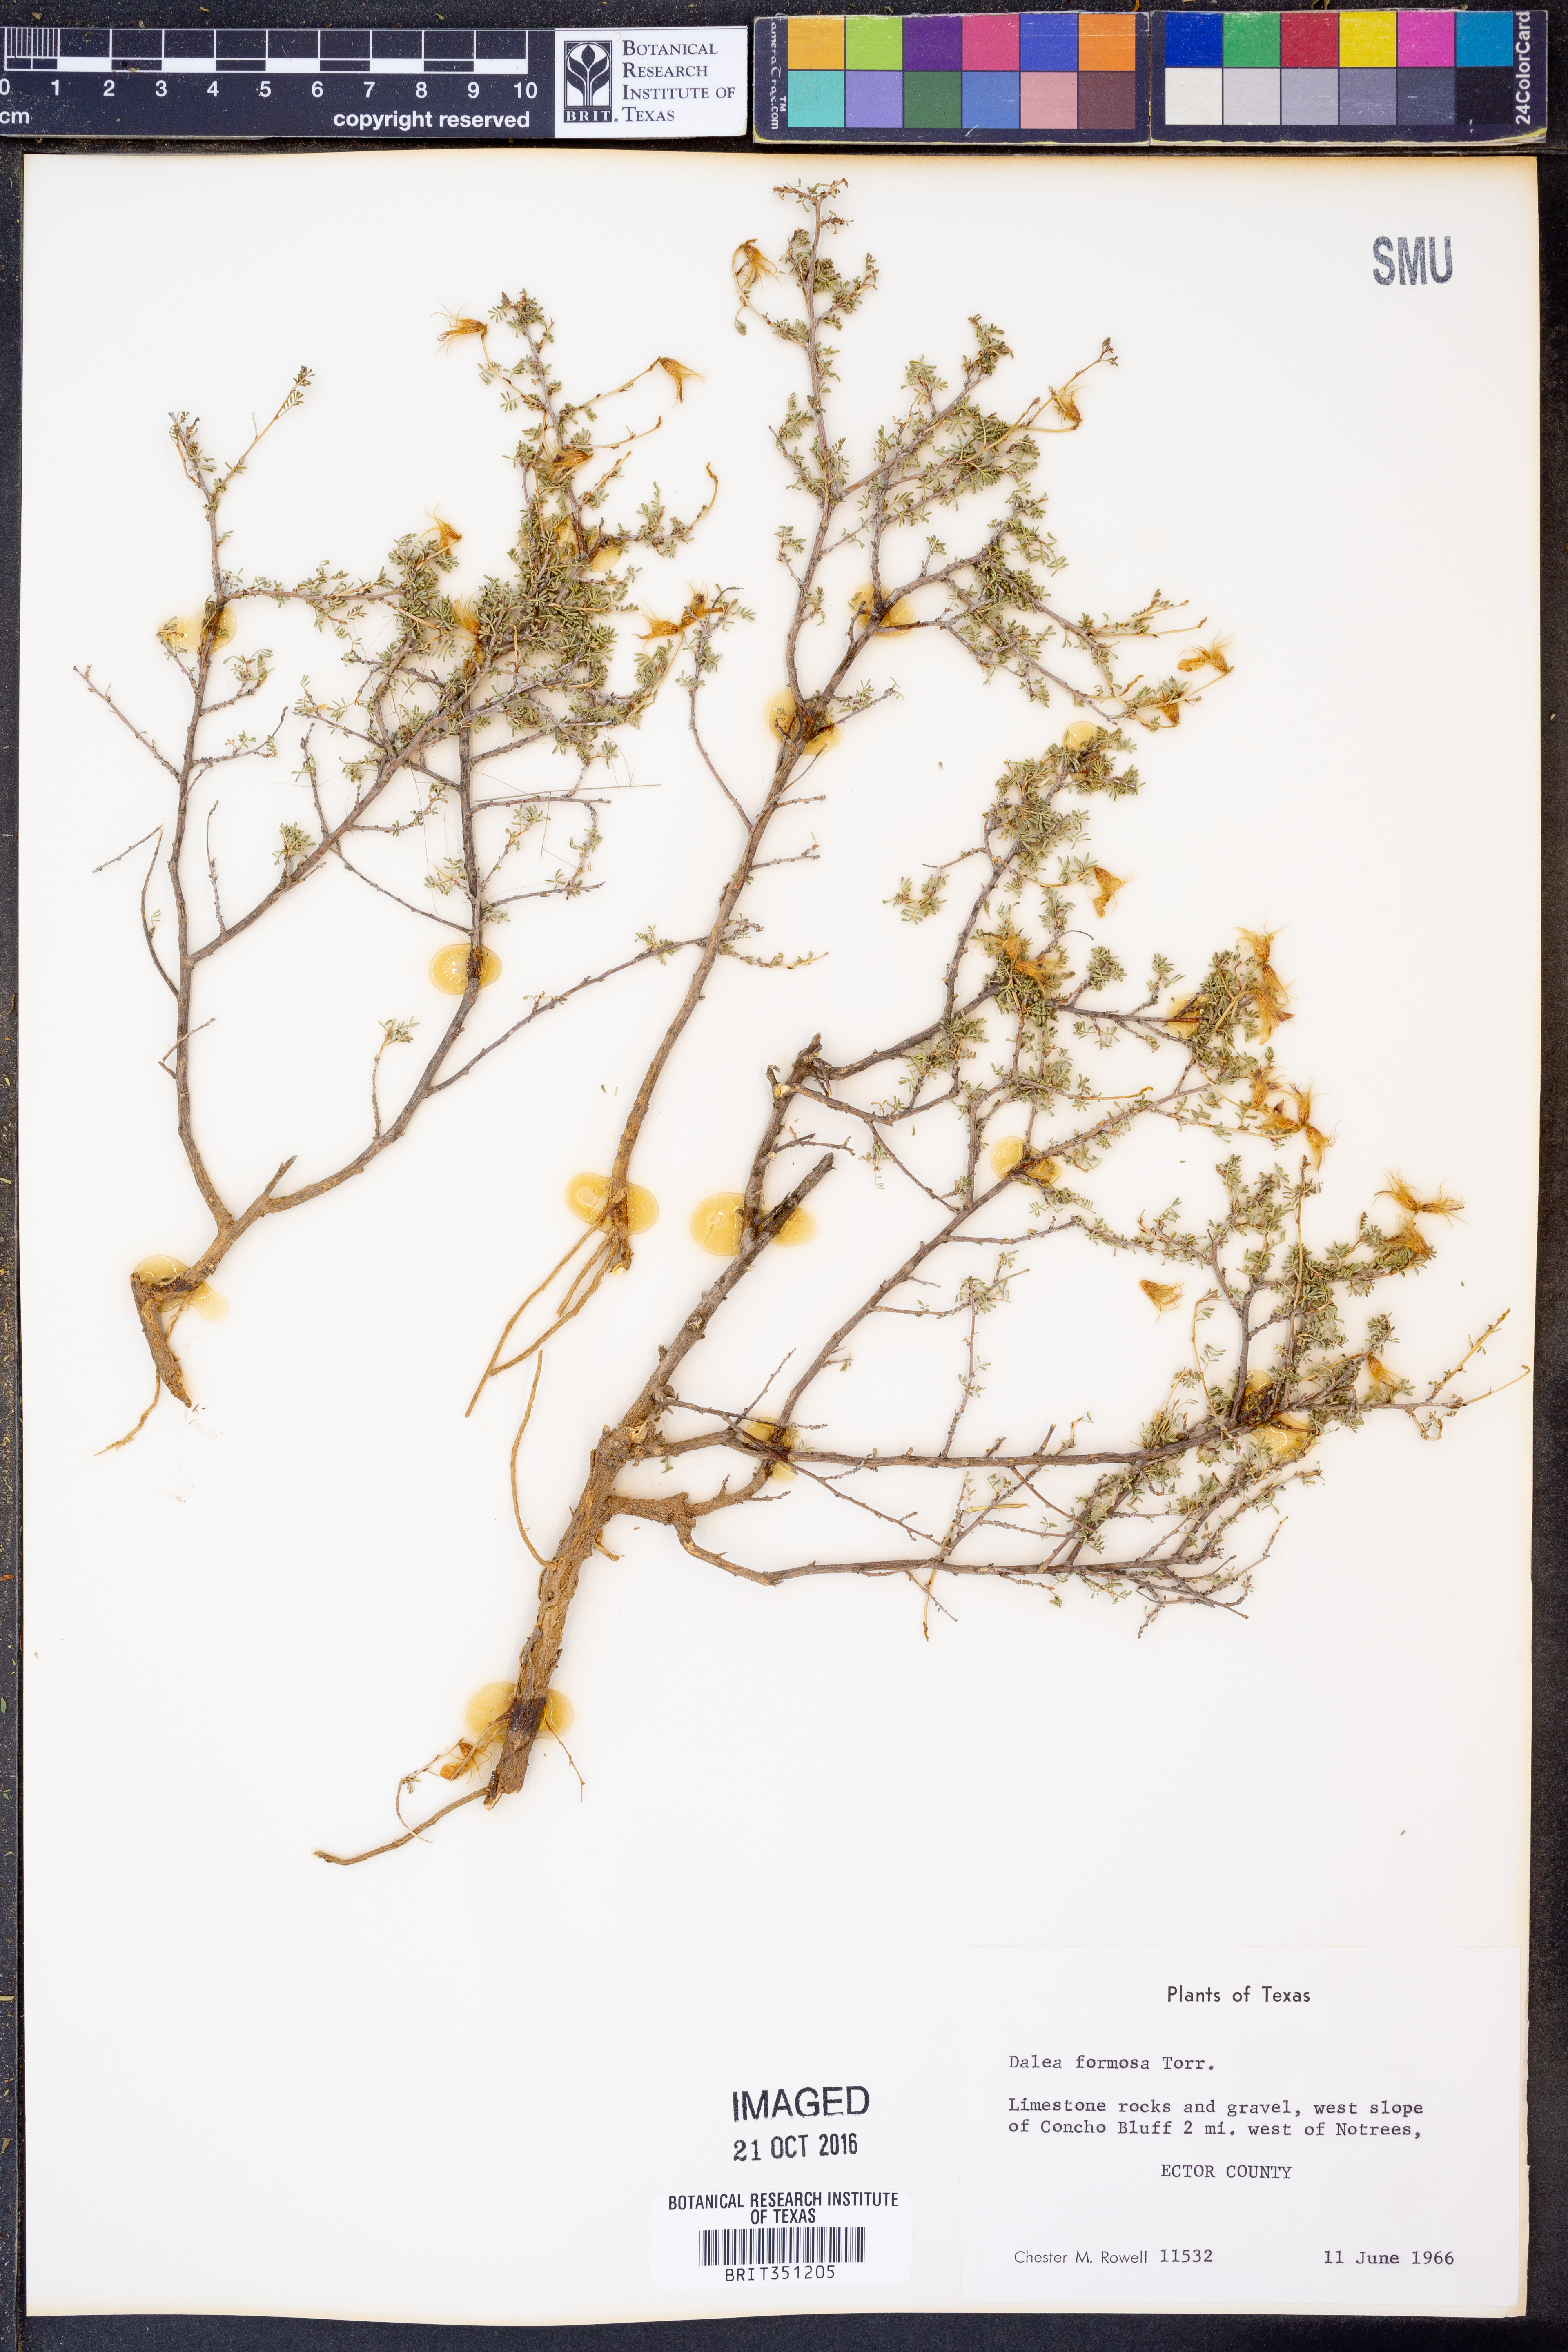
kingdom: Plantae
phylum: Tracheophyta
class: Magnoliopsida
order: Fabales
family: Fabaceae
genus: Dalea
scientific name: Dalea formosa
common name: Feather-plume dalea
